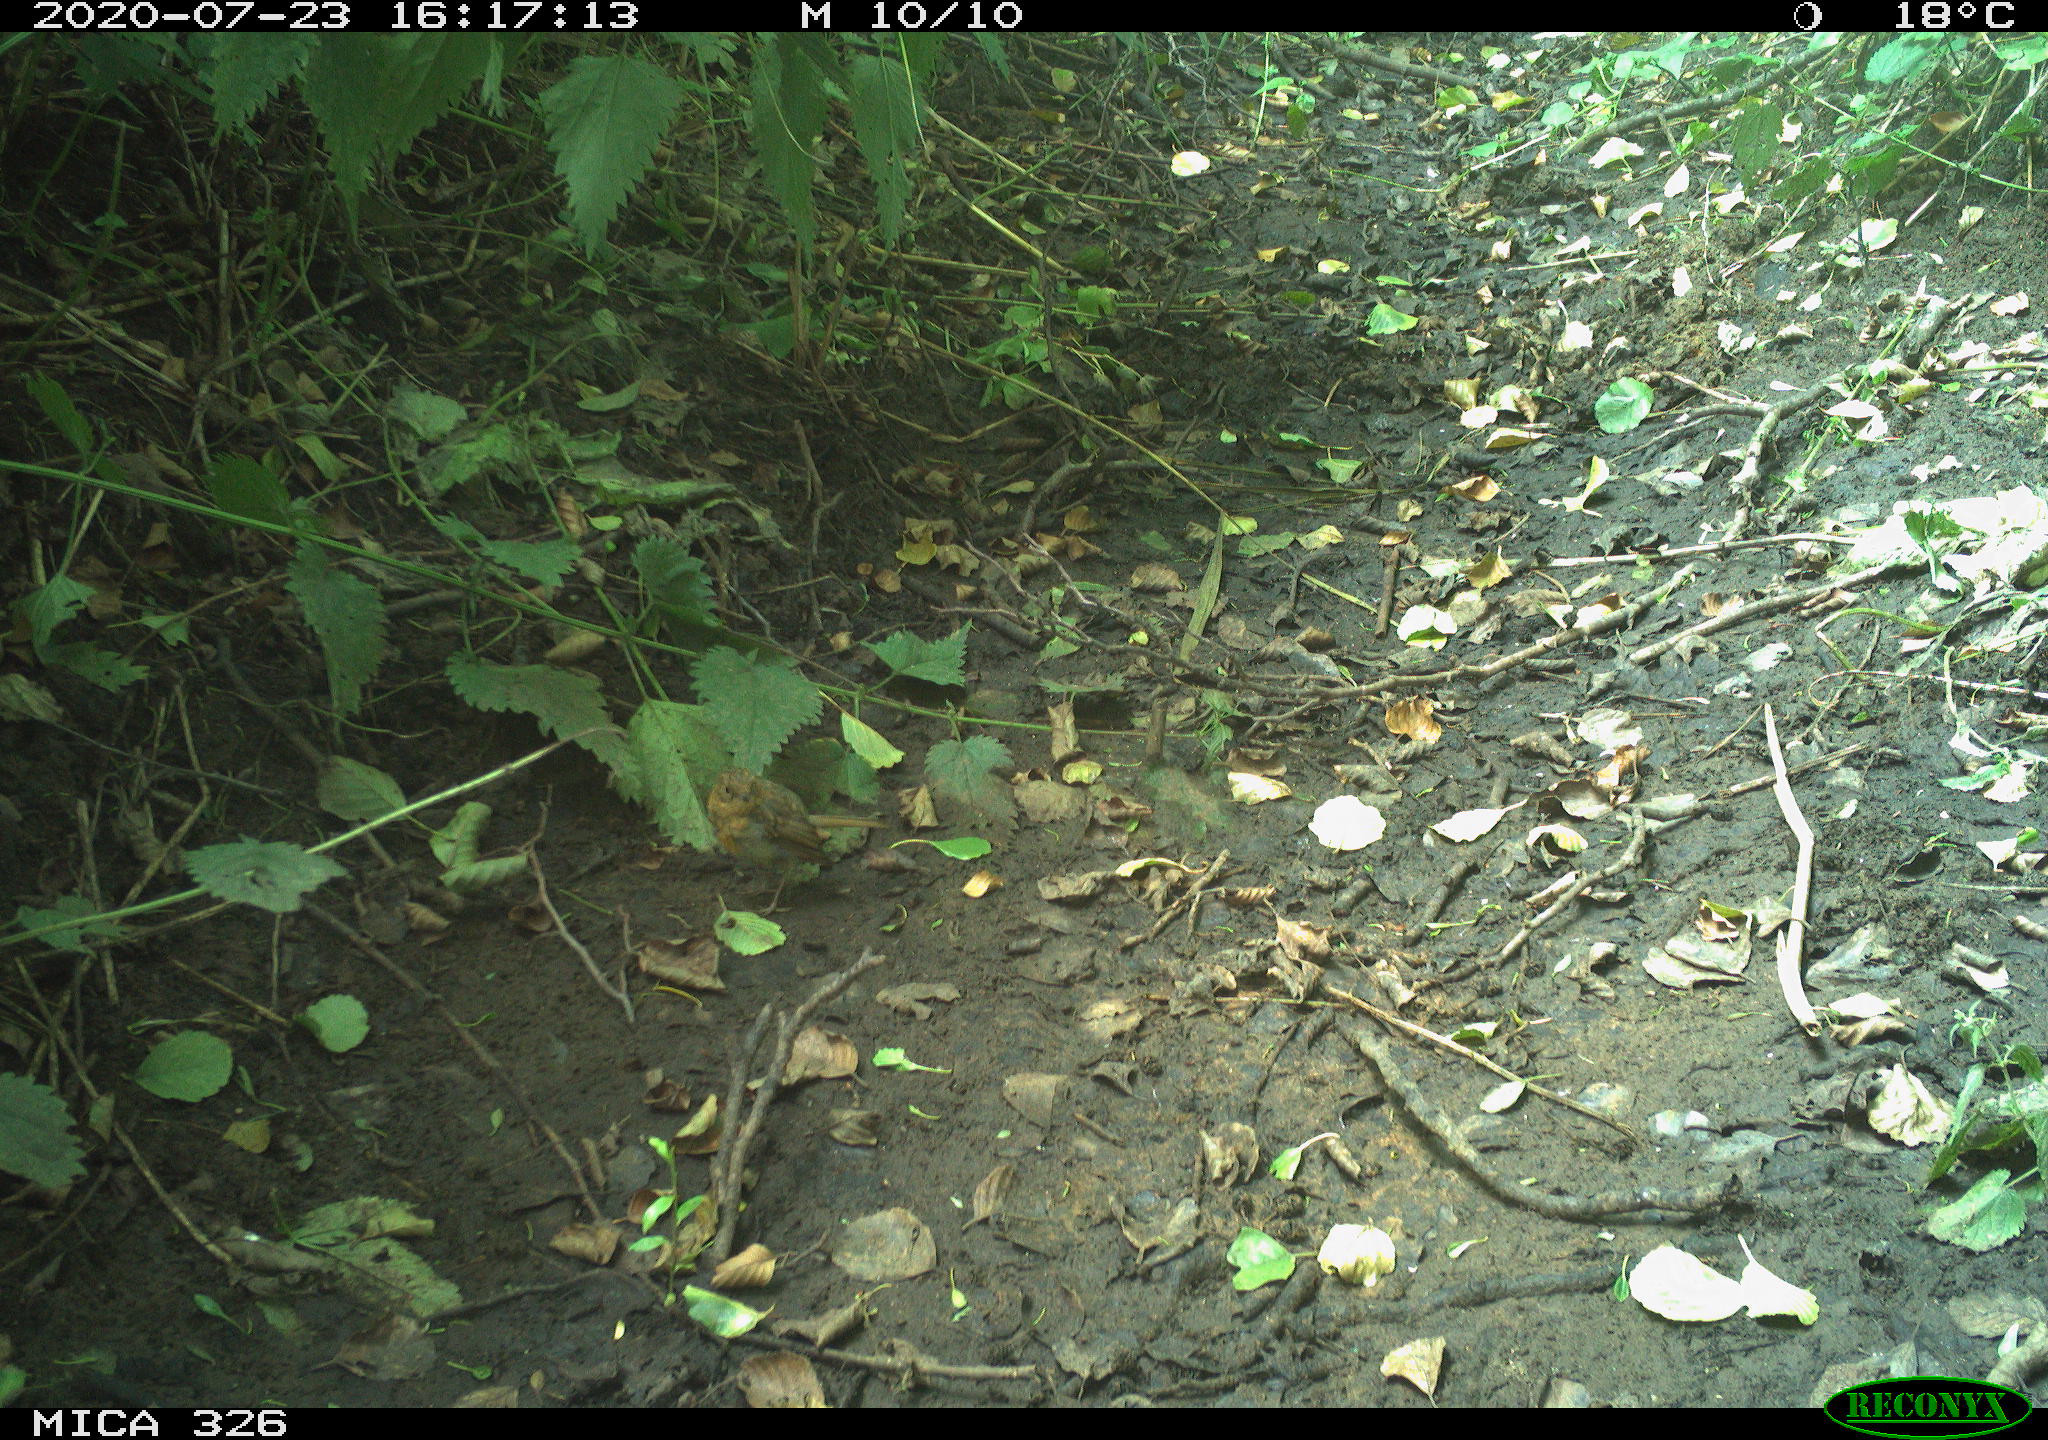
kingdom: Animalia
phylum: Chordata
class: Aves
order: Passeriformes
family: Muscicapidae
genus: Erithacus
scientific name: Erithacus rubecula
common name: European robin
